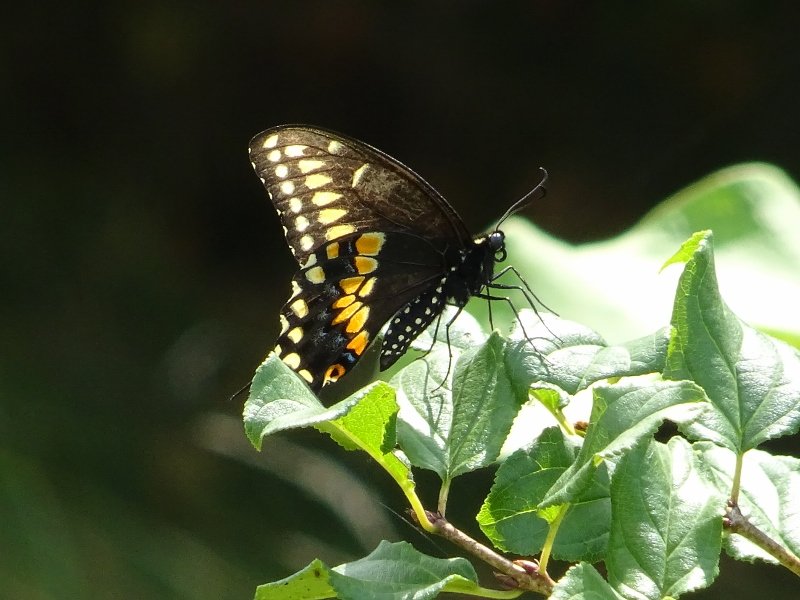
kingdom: Animalia
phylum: Arthropoda
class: Insecta
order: Lepidoptera
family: Papilionidae
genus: Papilio
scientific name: Papilio polyxenes
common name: Black Swallowtail
